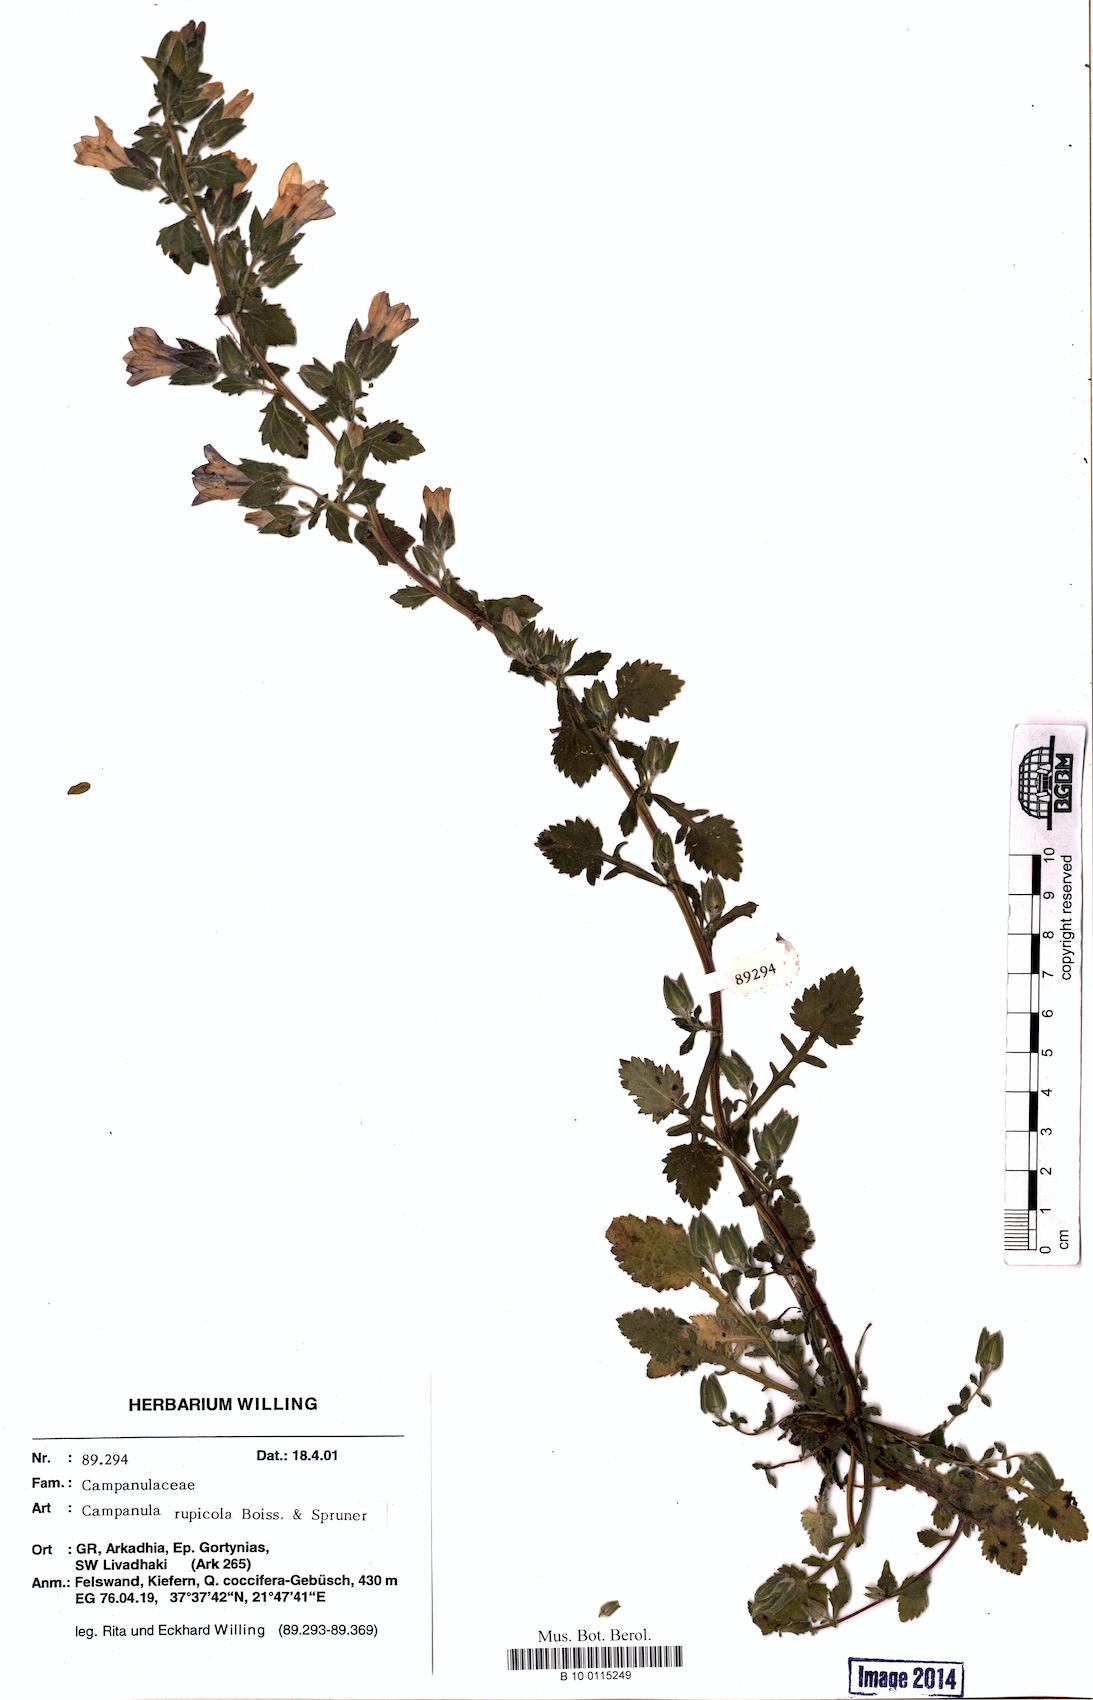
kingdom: Plantae
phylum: Tracheophyta
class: Magnoliopsida
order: Asterales
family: Campanulaceae
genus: Campanula
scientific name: Campanula rupicola
